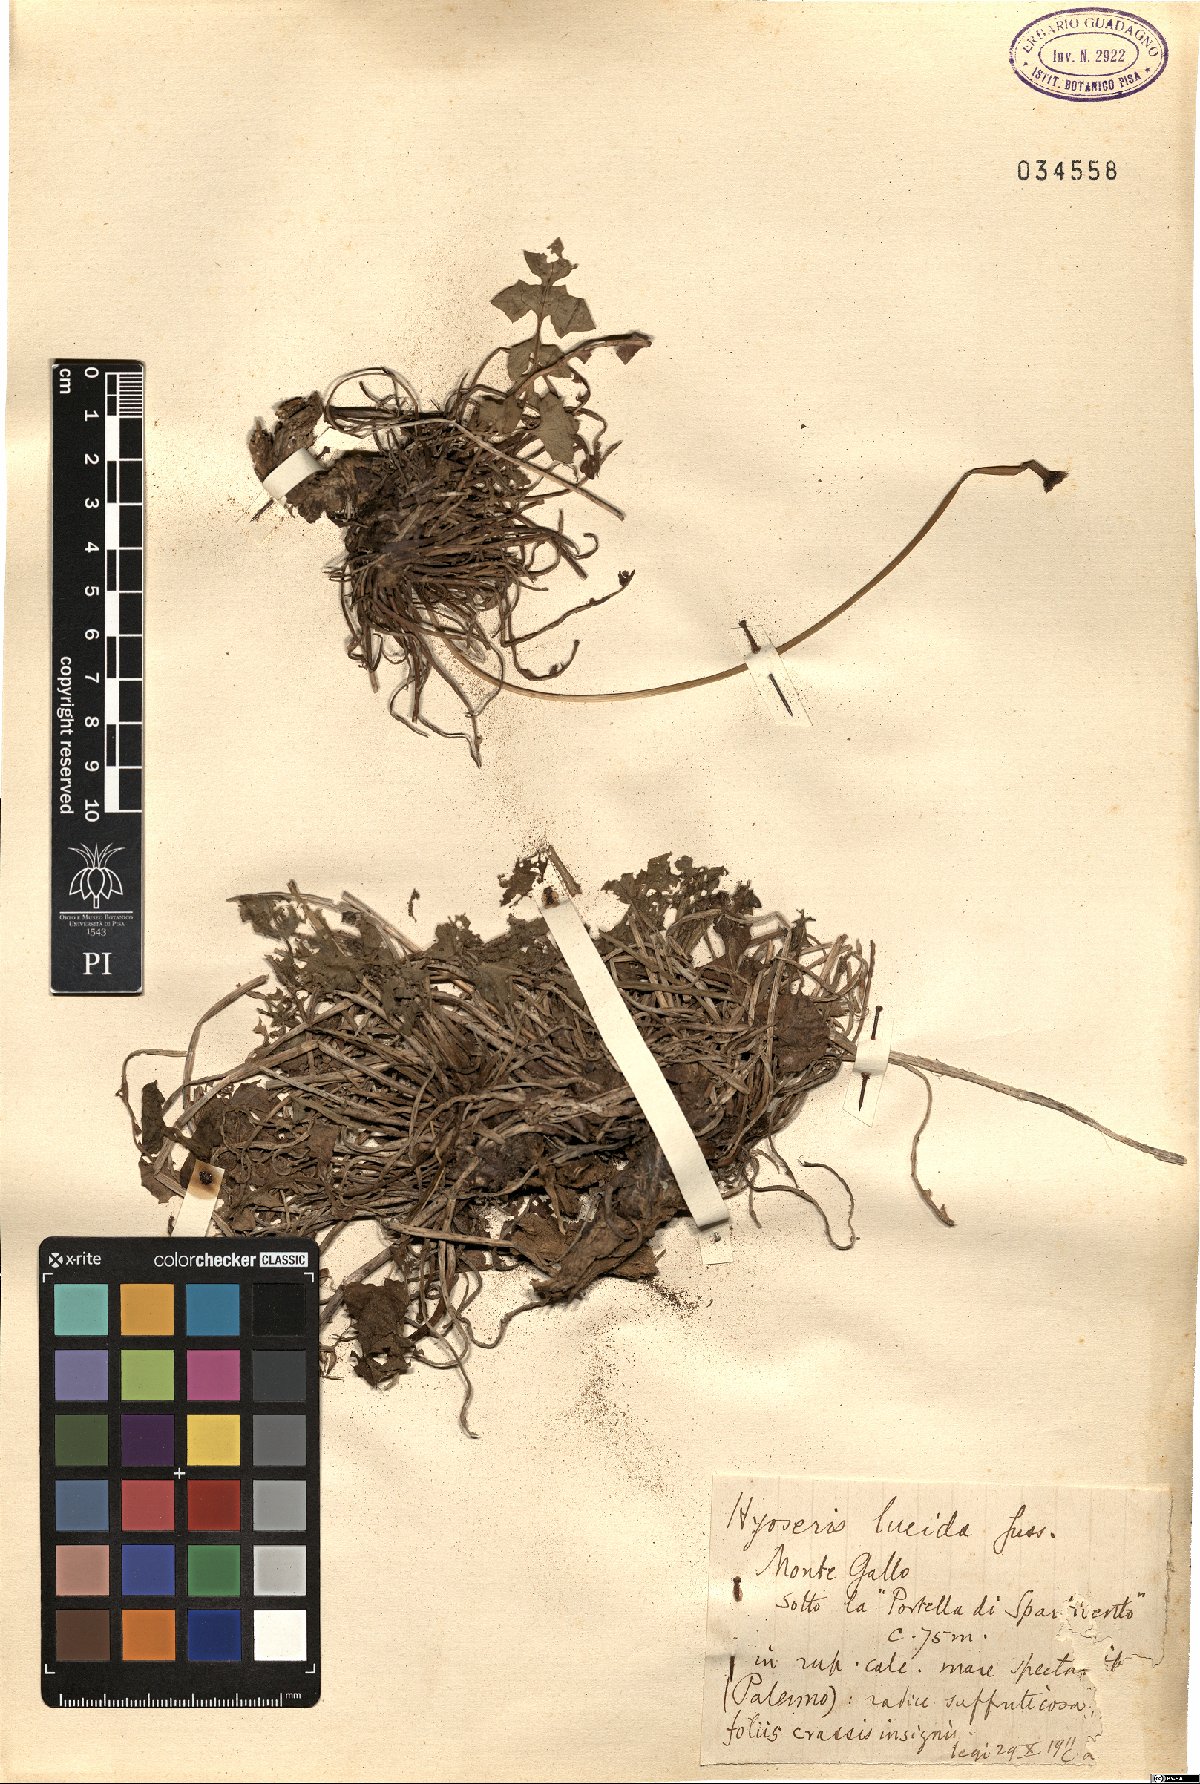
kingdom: Plantae
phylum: Tracheophyta
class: Magnoliopsida
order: Asterales
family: Asteraceae
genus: Hyoseris
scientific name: Hyoseris lucida
